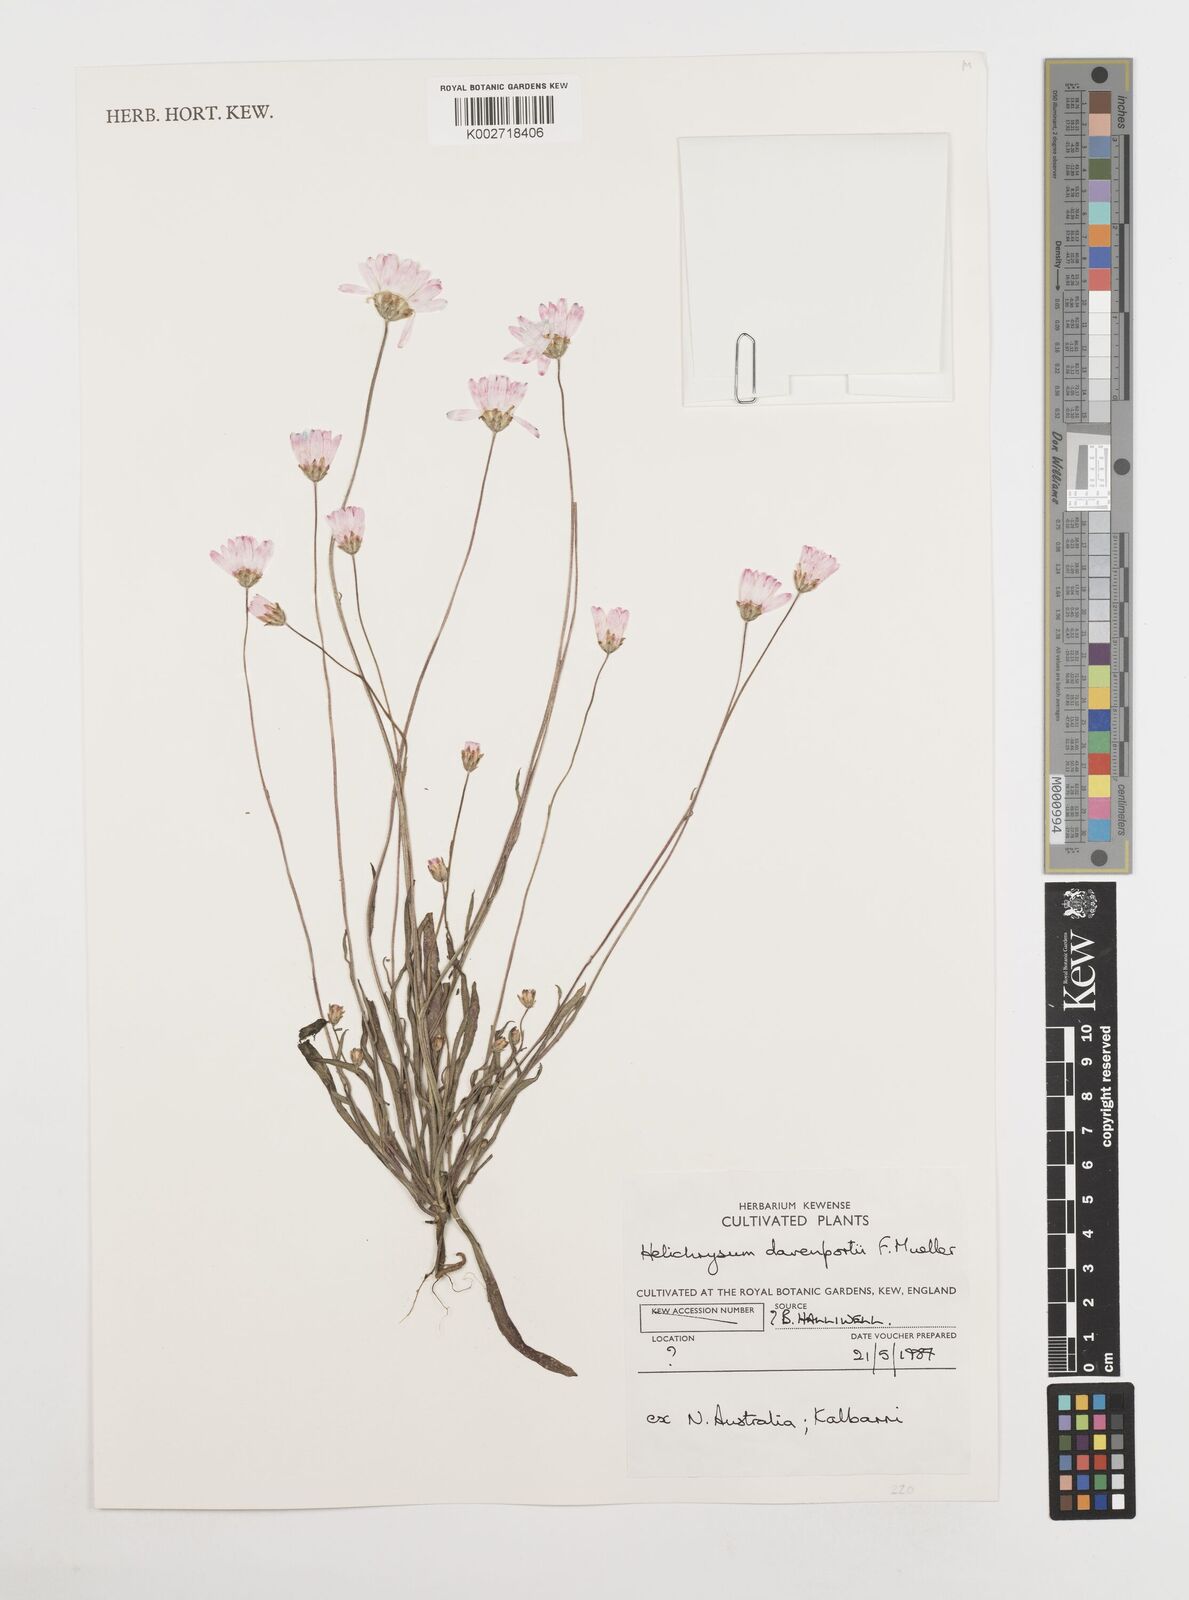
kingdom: Plantae
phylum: Tracheophyta
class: Magnoliopsida
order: Asterales
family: Asteraceae
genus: Xerochrysum
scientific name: Xerochrysum
